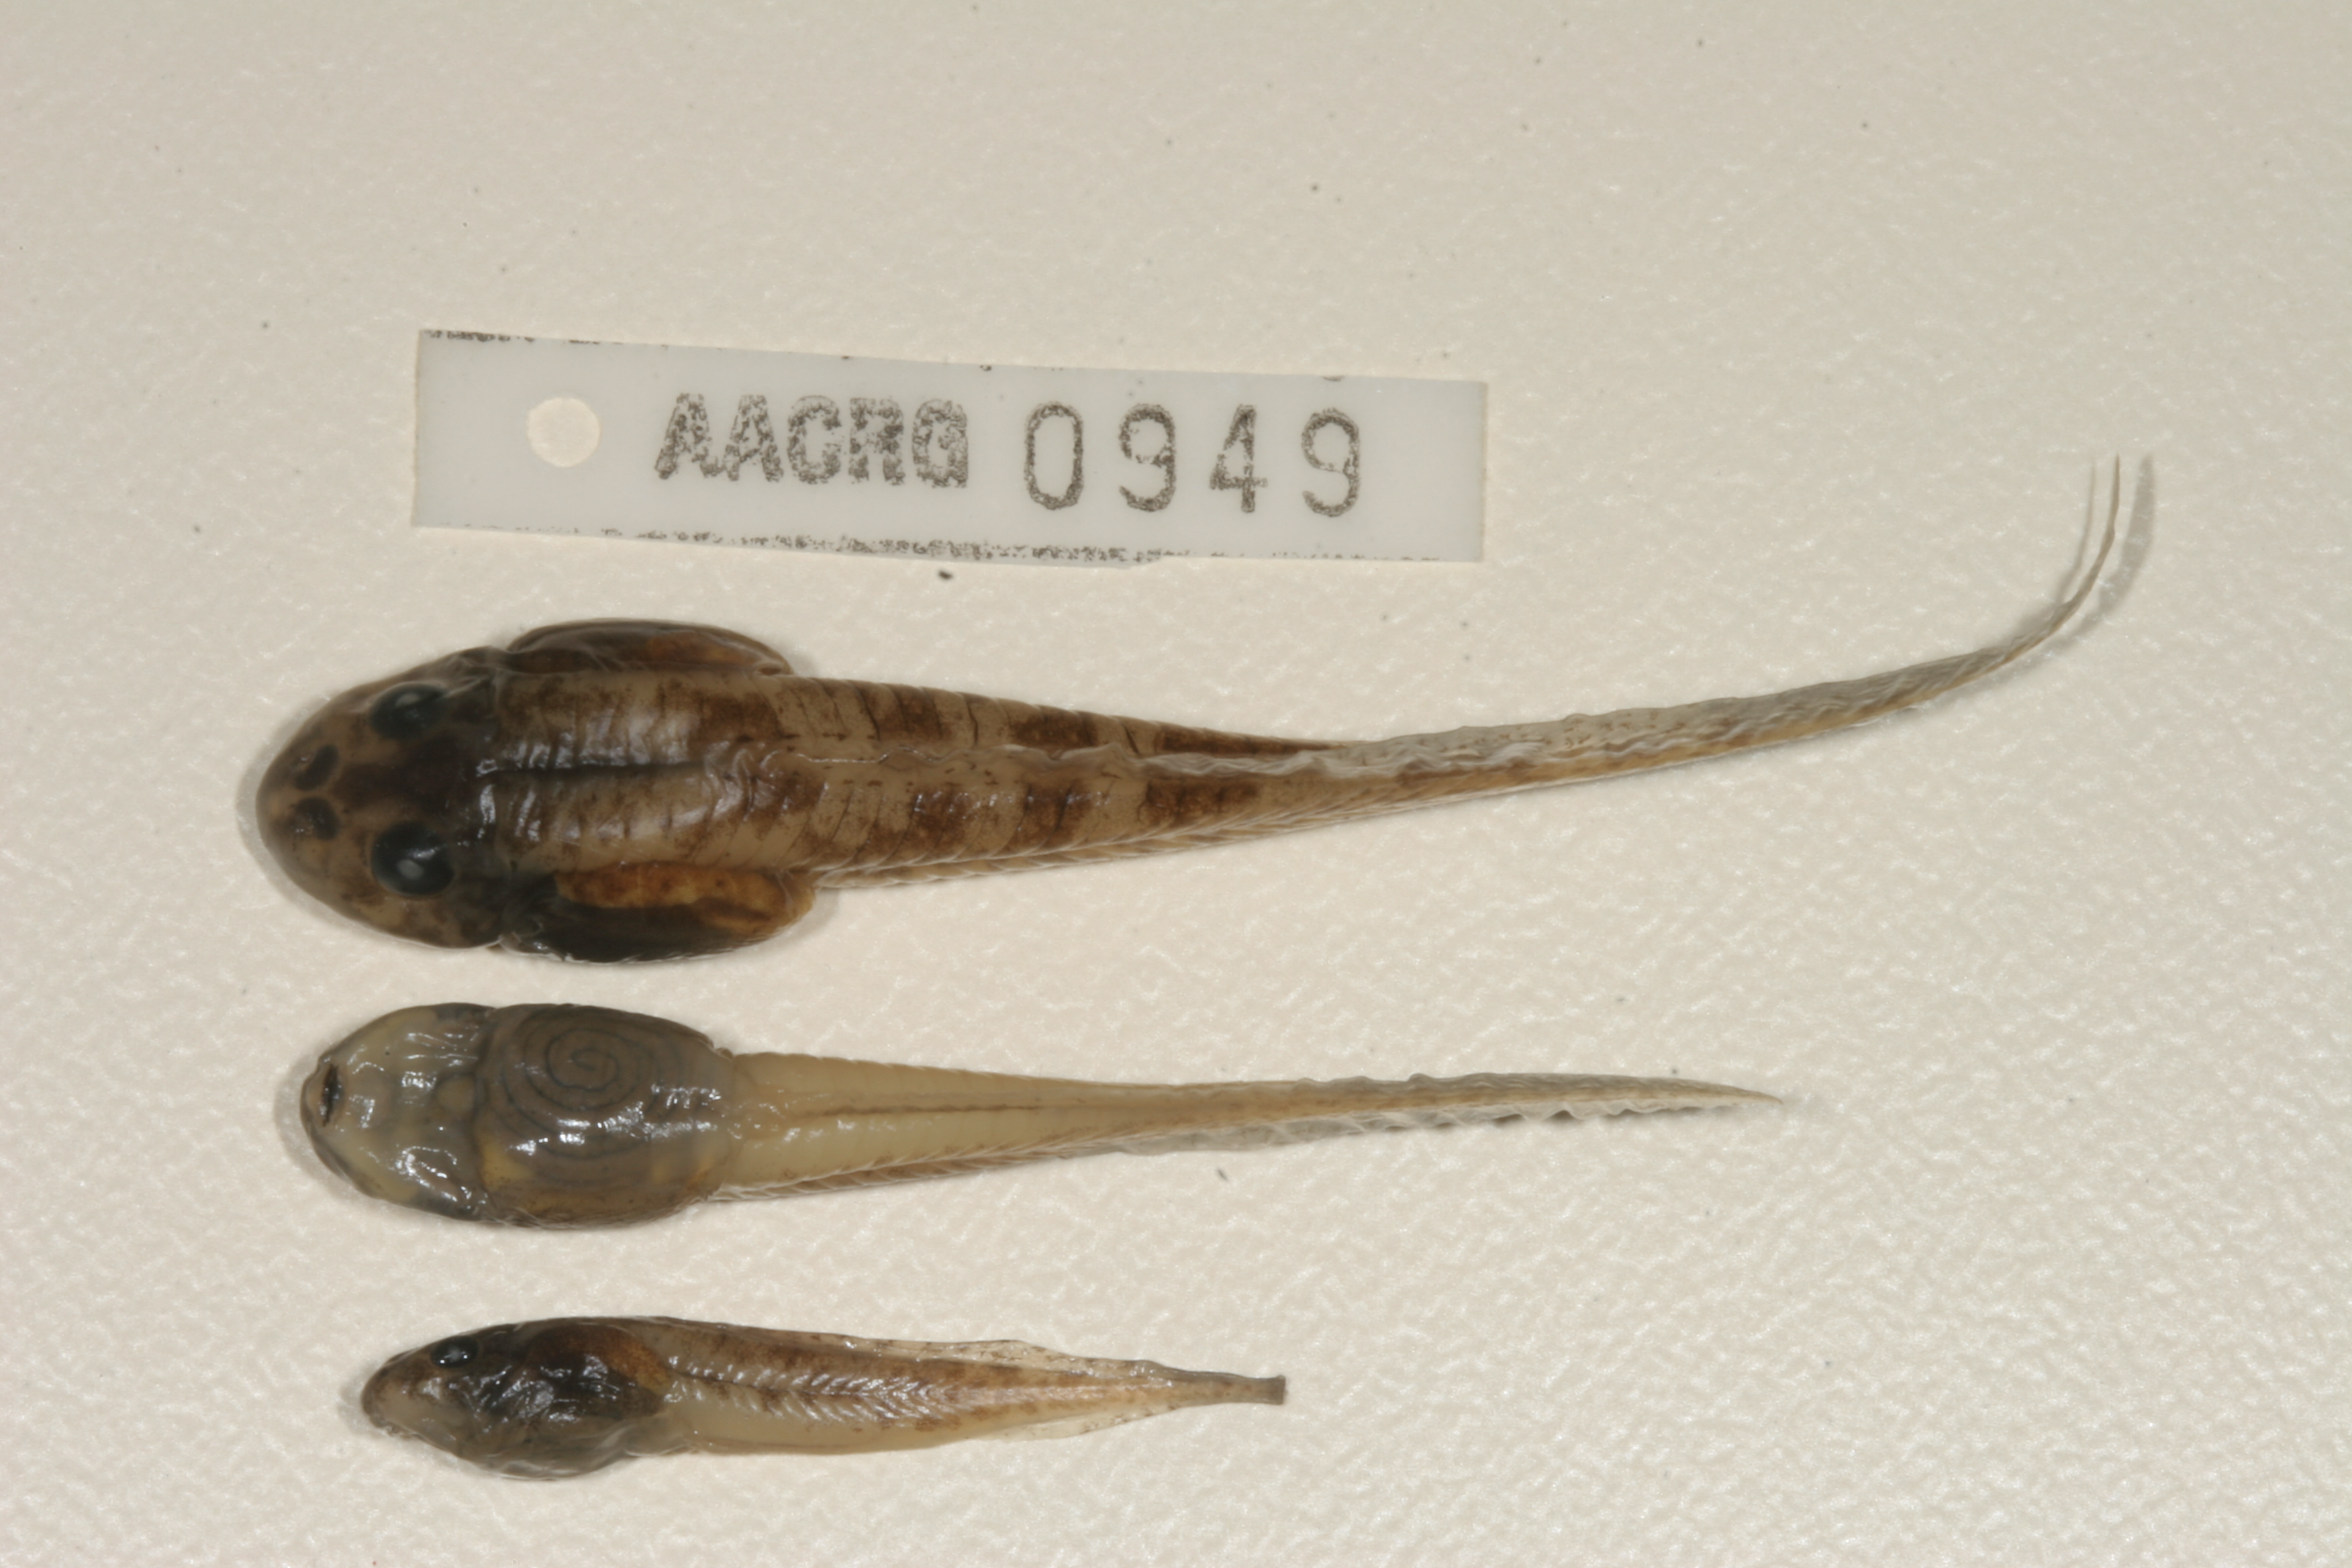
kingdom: Animalia
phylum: Chordata
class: Amphibia
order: Anura
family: Pyxicephalidae
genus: Amietia
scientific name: Amietia angolensis
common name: Dusky-throated frog
